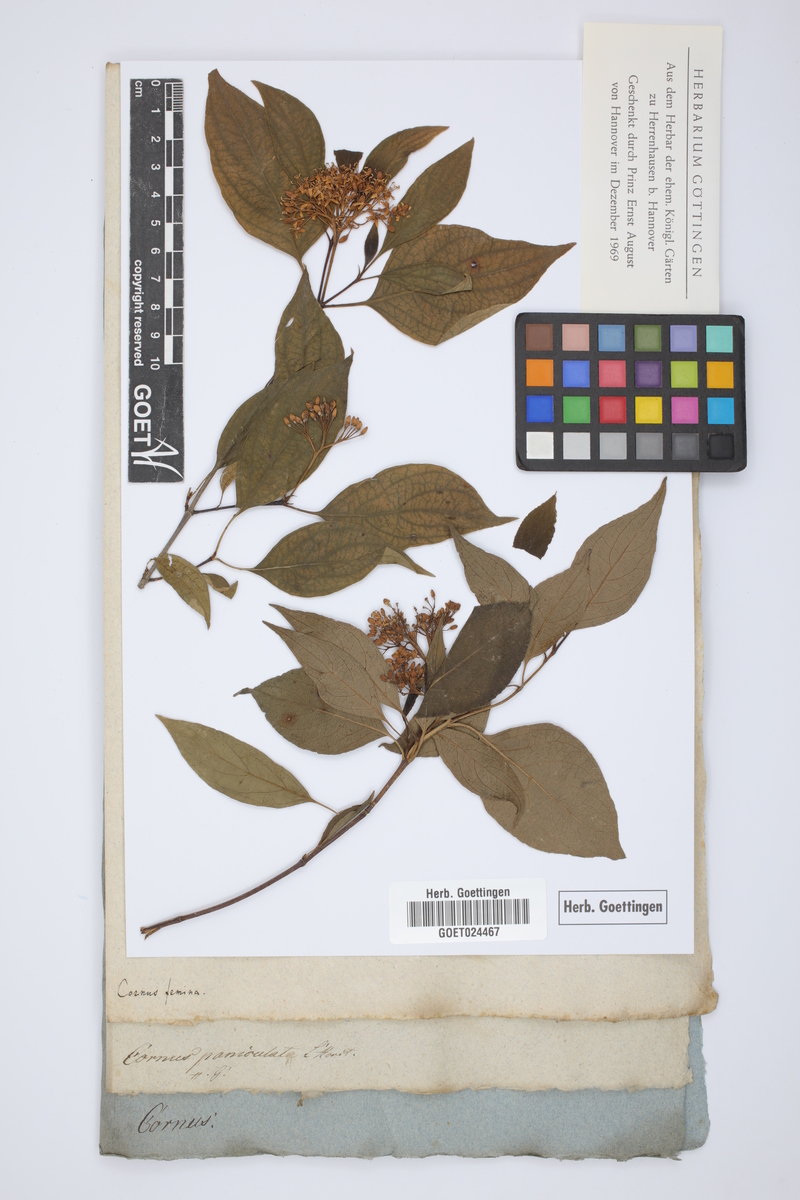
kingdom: Plantae
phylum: Tracheophyta
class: Magnoliopsida
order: Cornales
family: Cornaceae
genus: Cornus
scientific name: Cornus racemosa
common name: Panicled dogwood
